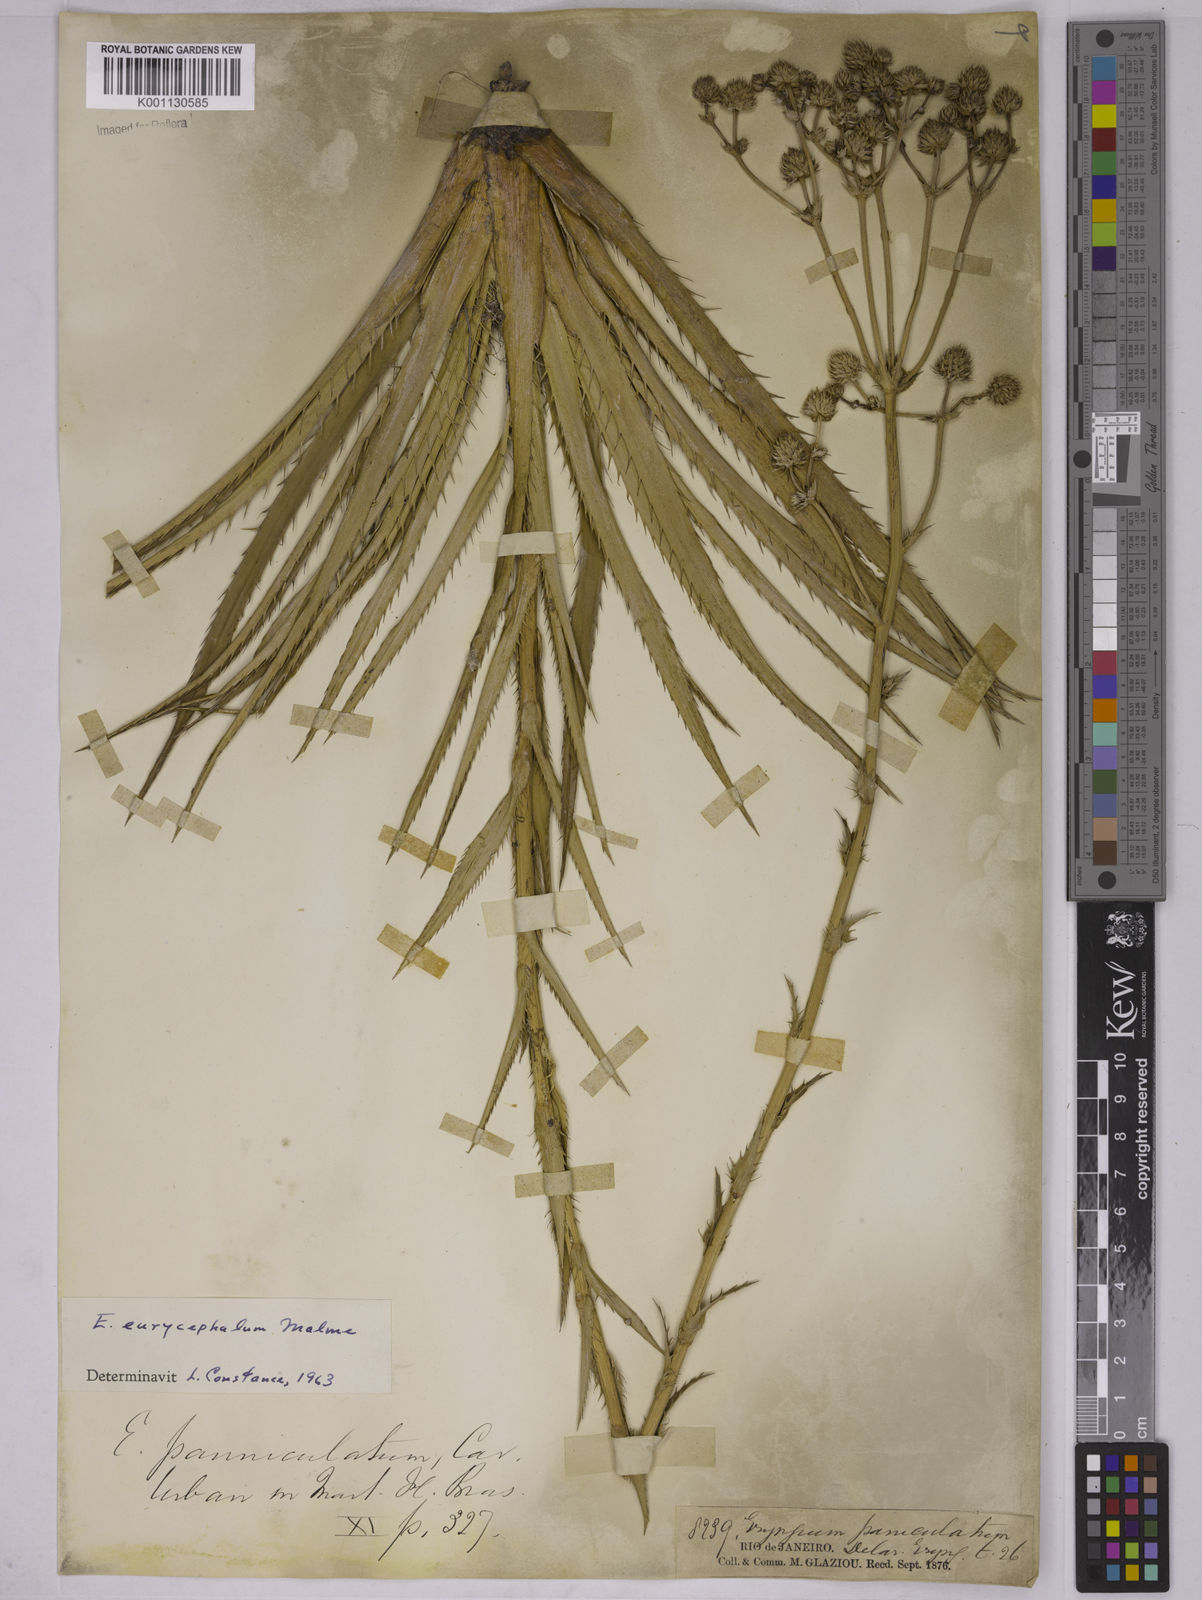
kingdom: Plantae
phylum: Tracheophyta
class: Magnoliopsida
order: Apiales
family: Apiaceae
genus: Eryngium
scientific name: Eryngium eurycephalum
